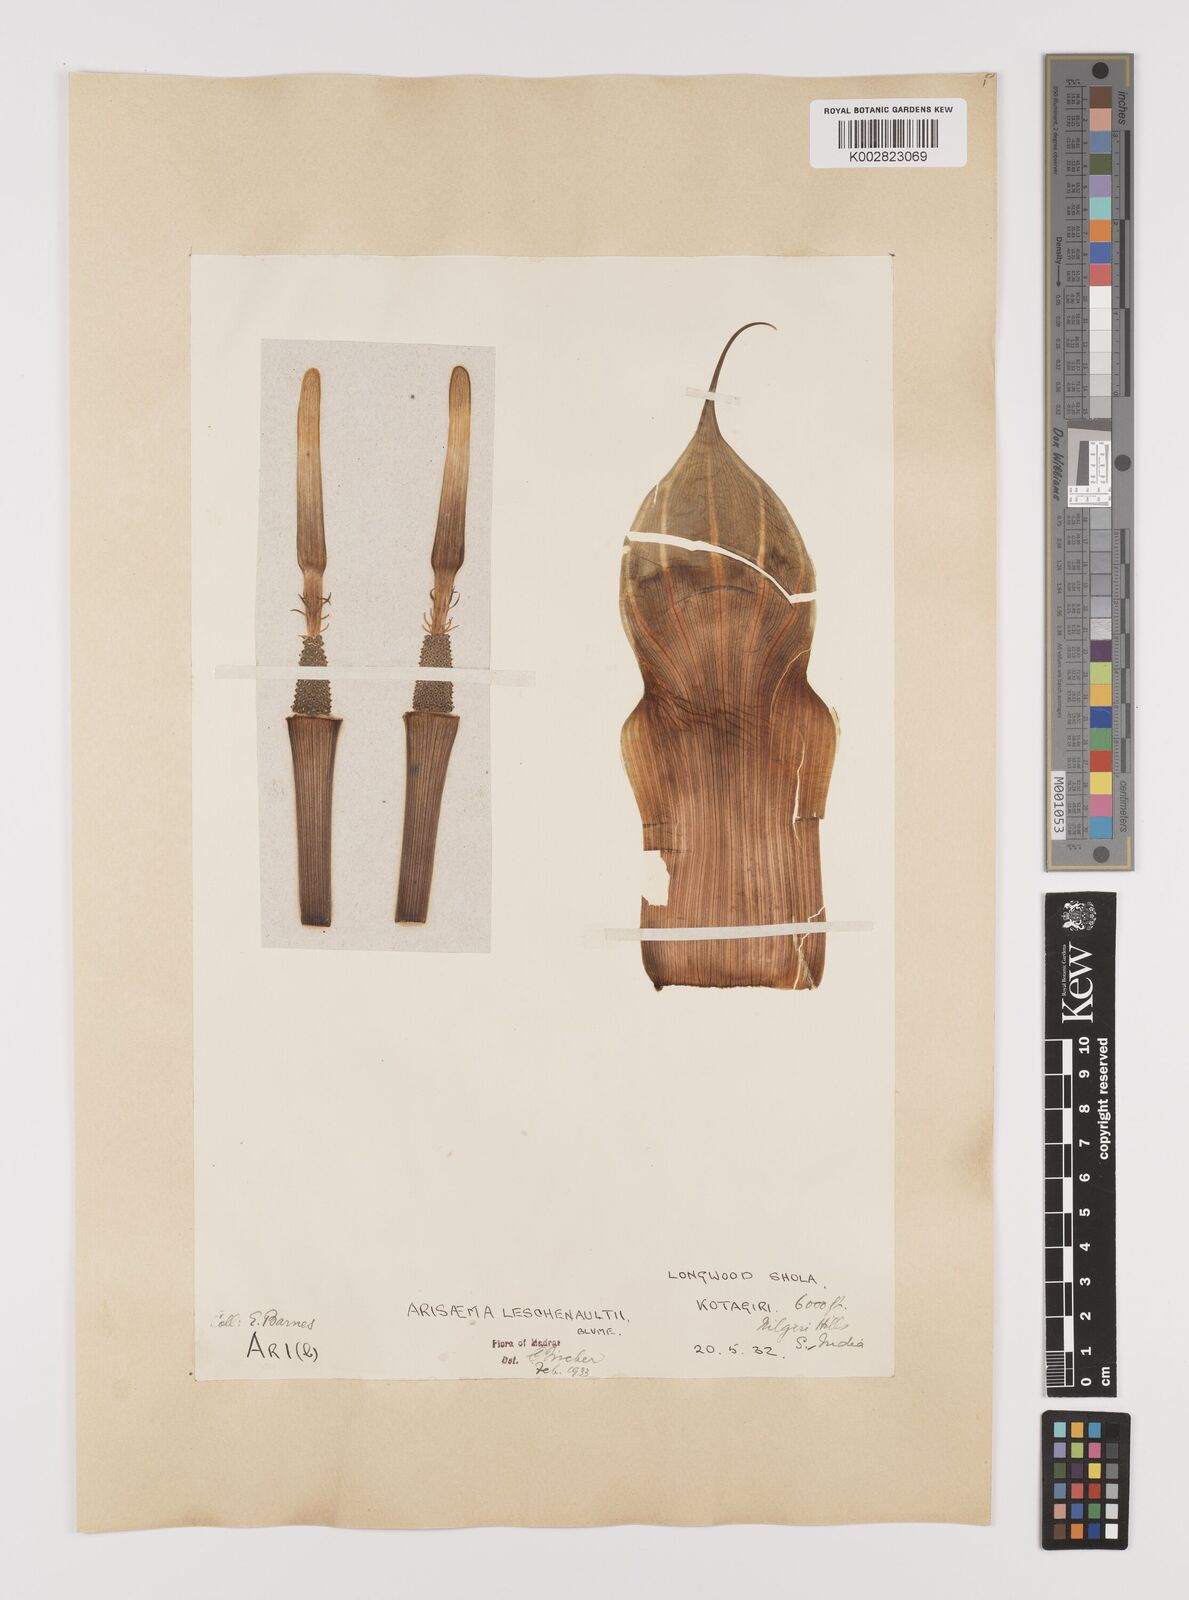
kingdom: Plantae
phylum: Tracheophyta
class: Liliopsida
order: Alismatales
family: Araceae
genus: Arisaema
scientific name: Arisaema leschenaultii
